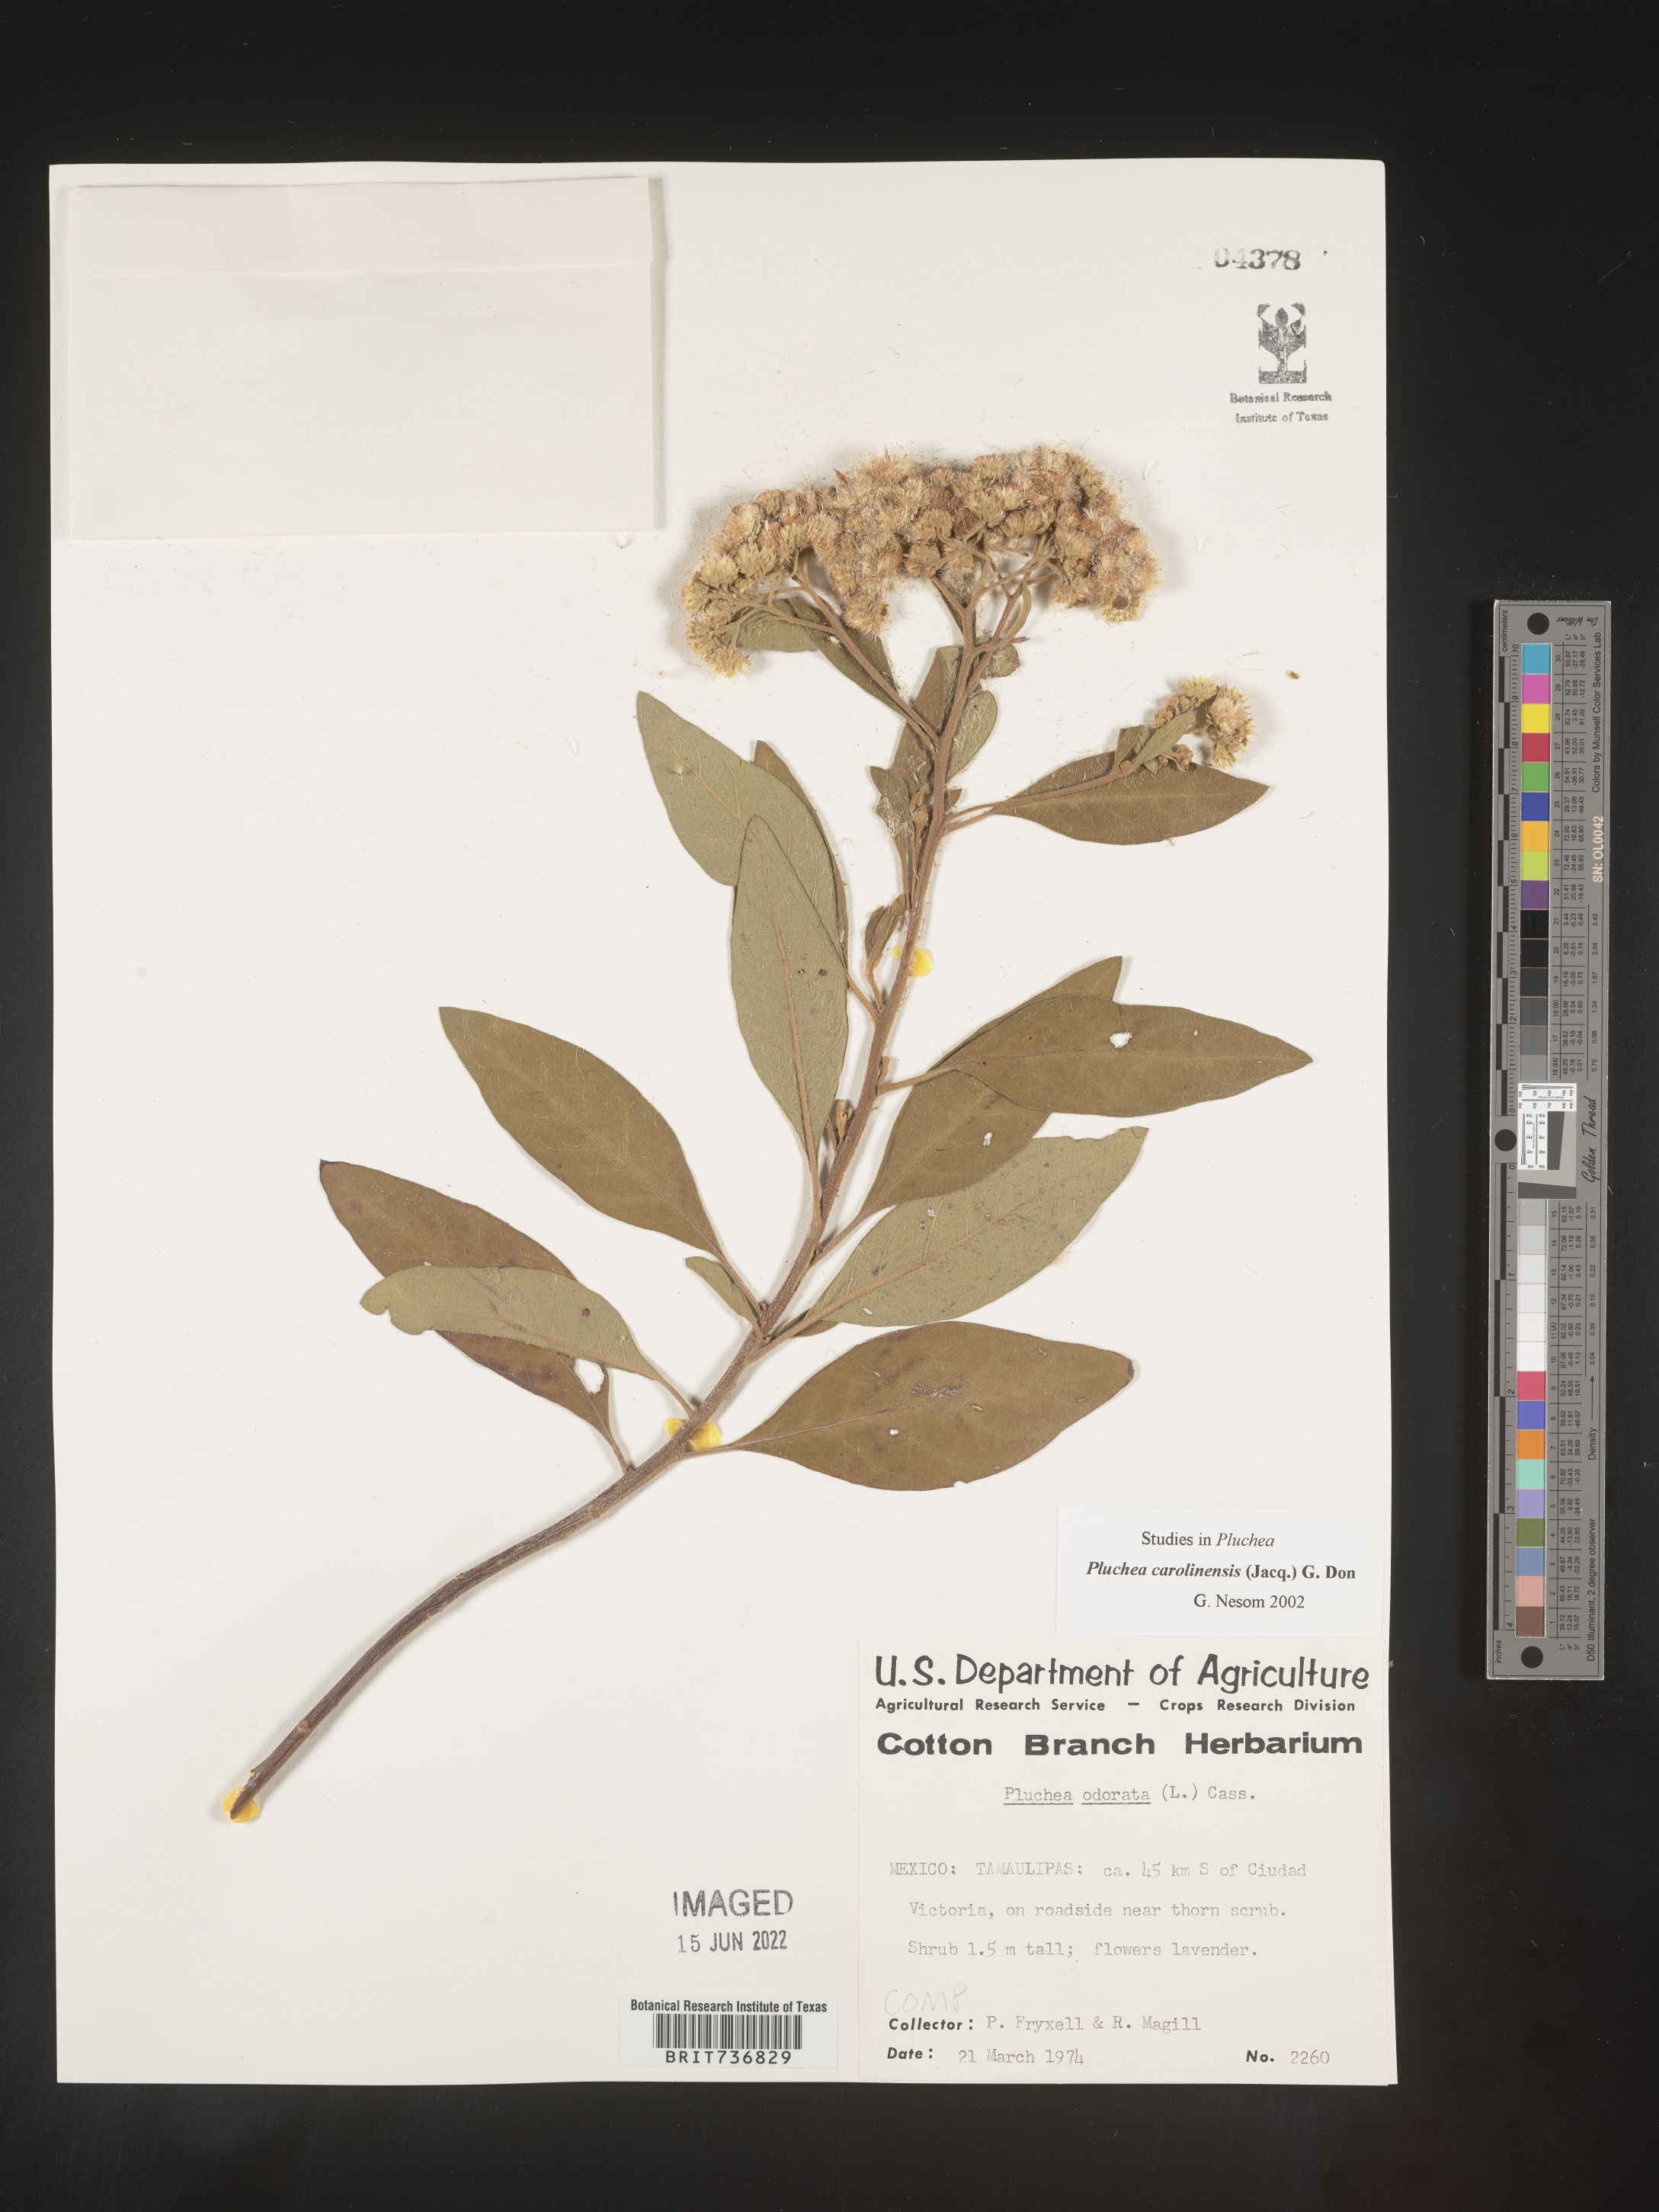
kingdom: Plantae
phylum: Tracheophyta
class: Magnoliopsida
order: Asterales
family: Asteraceae
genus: Pluchea
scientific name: Pluchea
